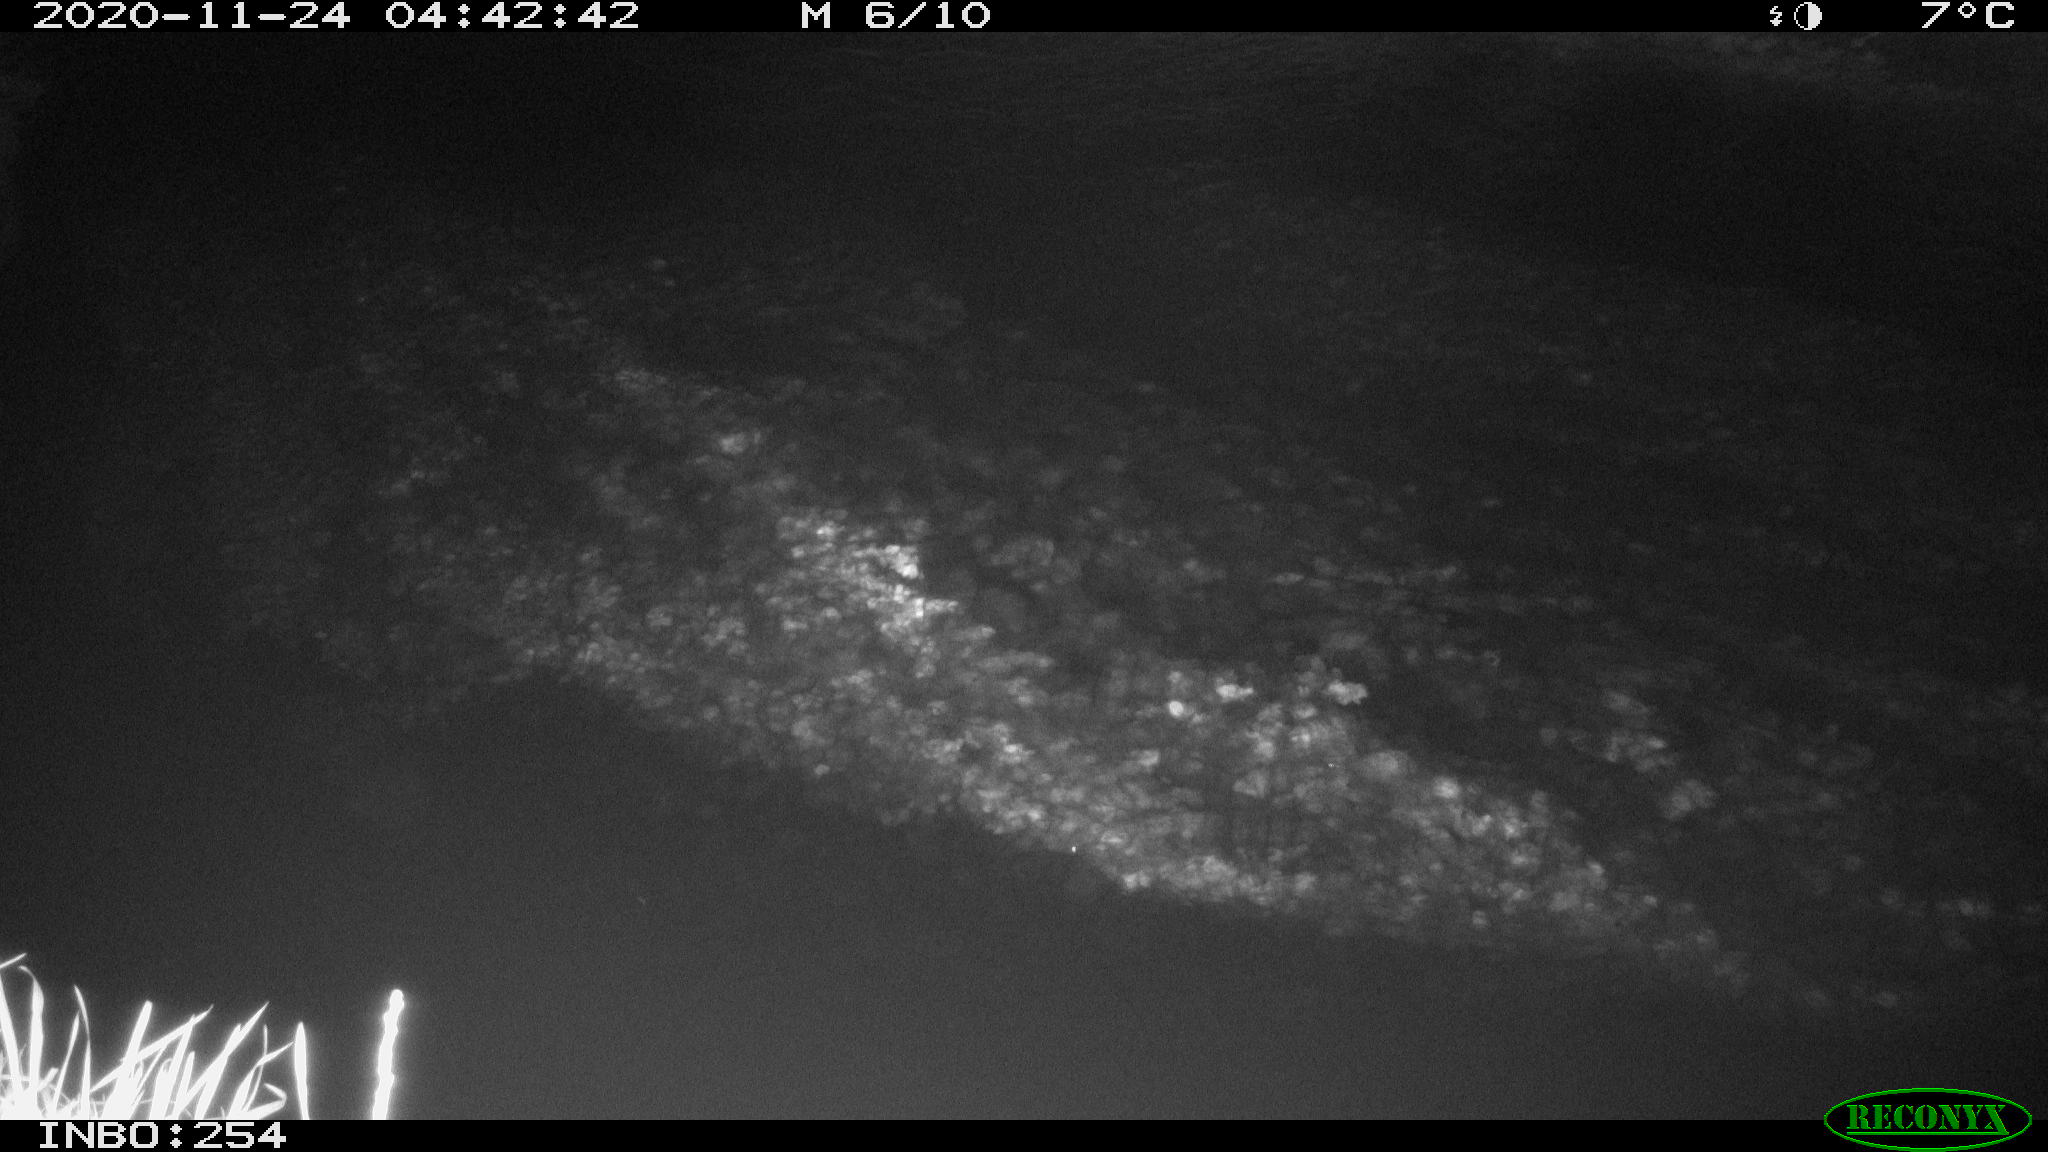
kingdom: Animalia
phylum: Chordata
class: Aves
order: Anseriformes
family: Anatidae
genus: Anas
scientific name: Anas platyrhynchos
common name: Mallard
